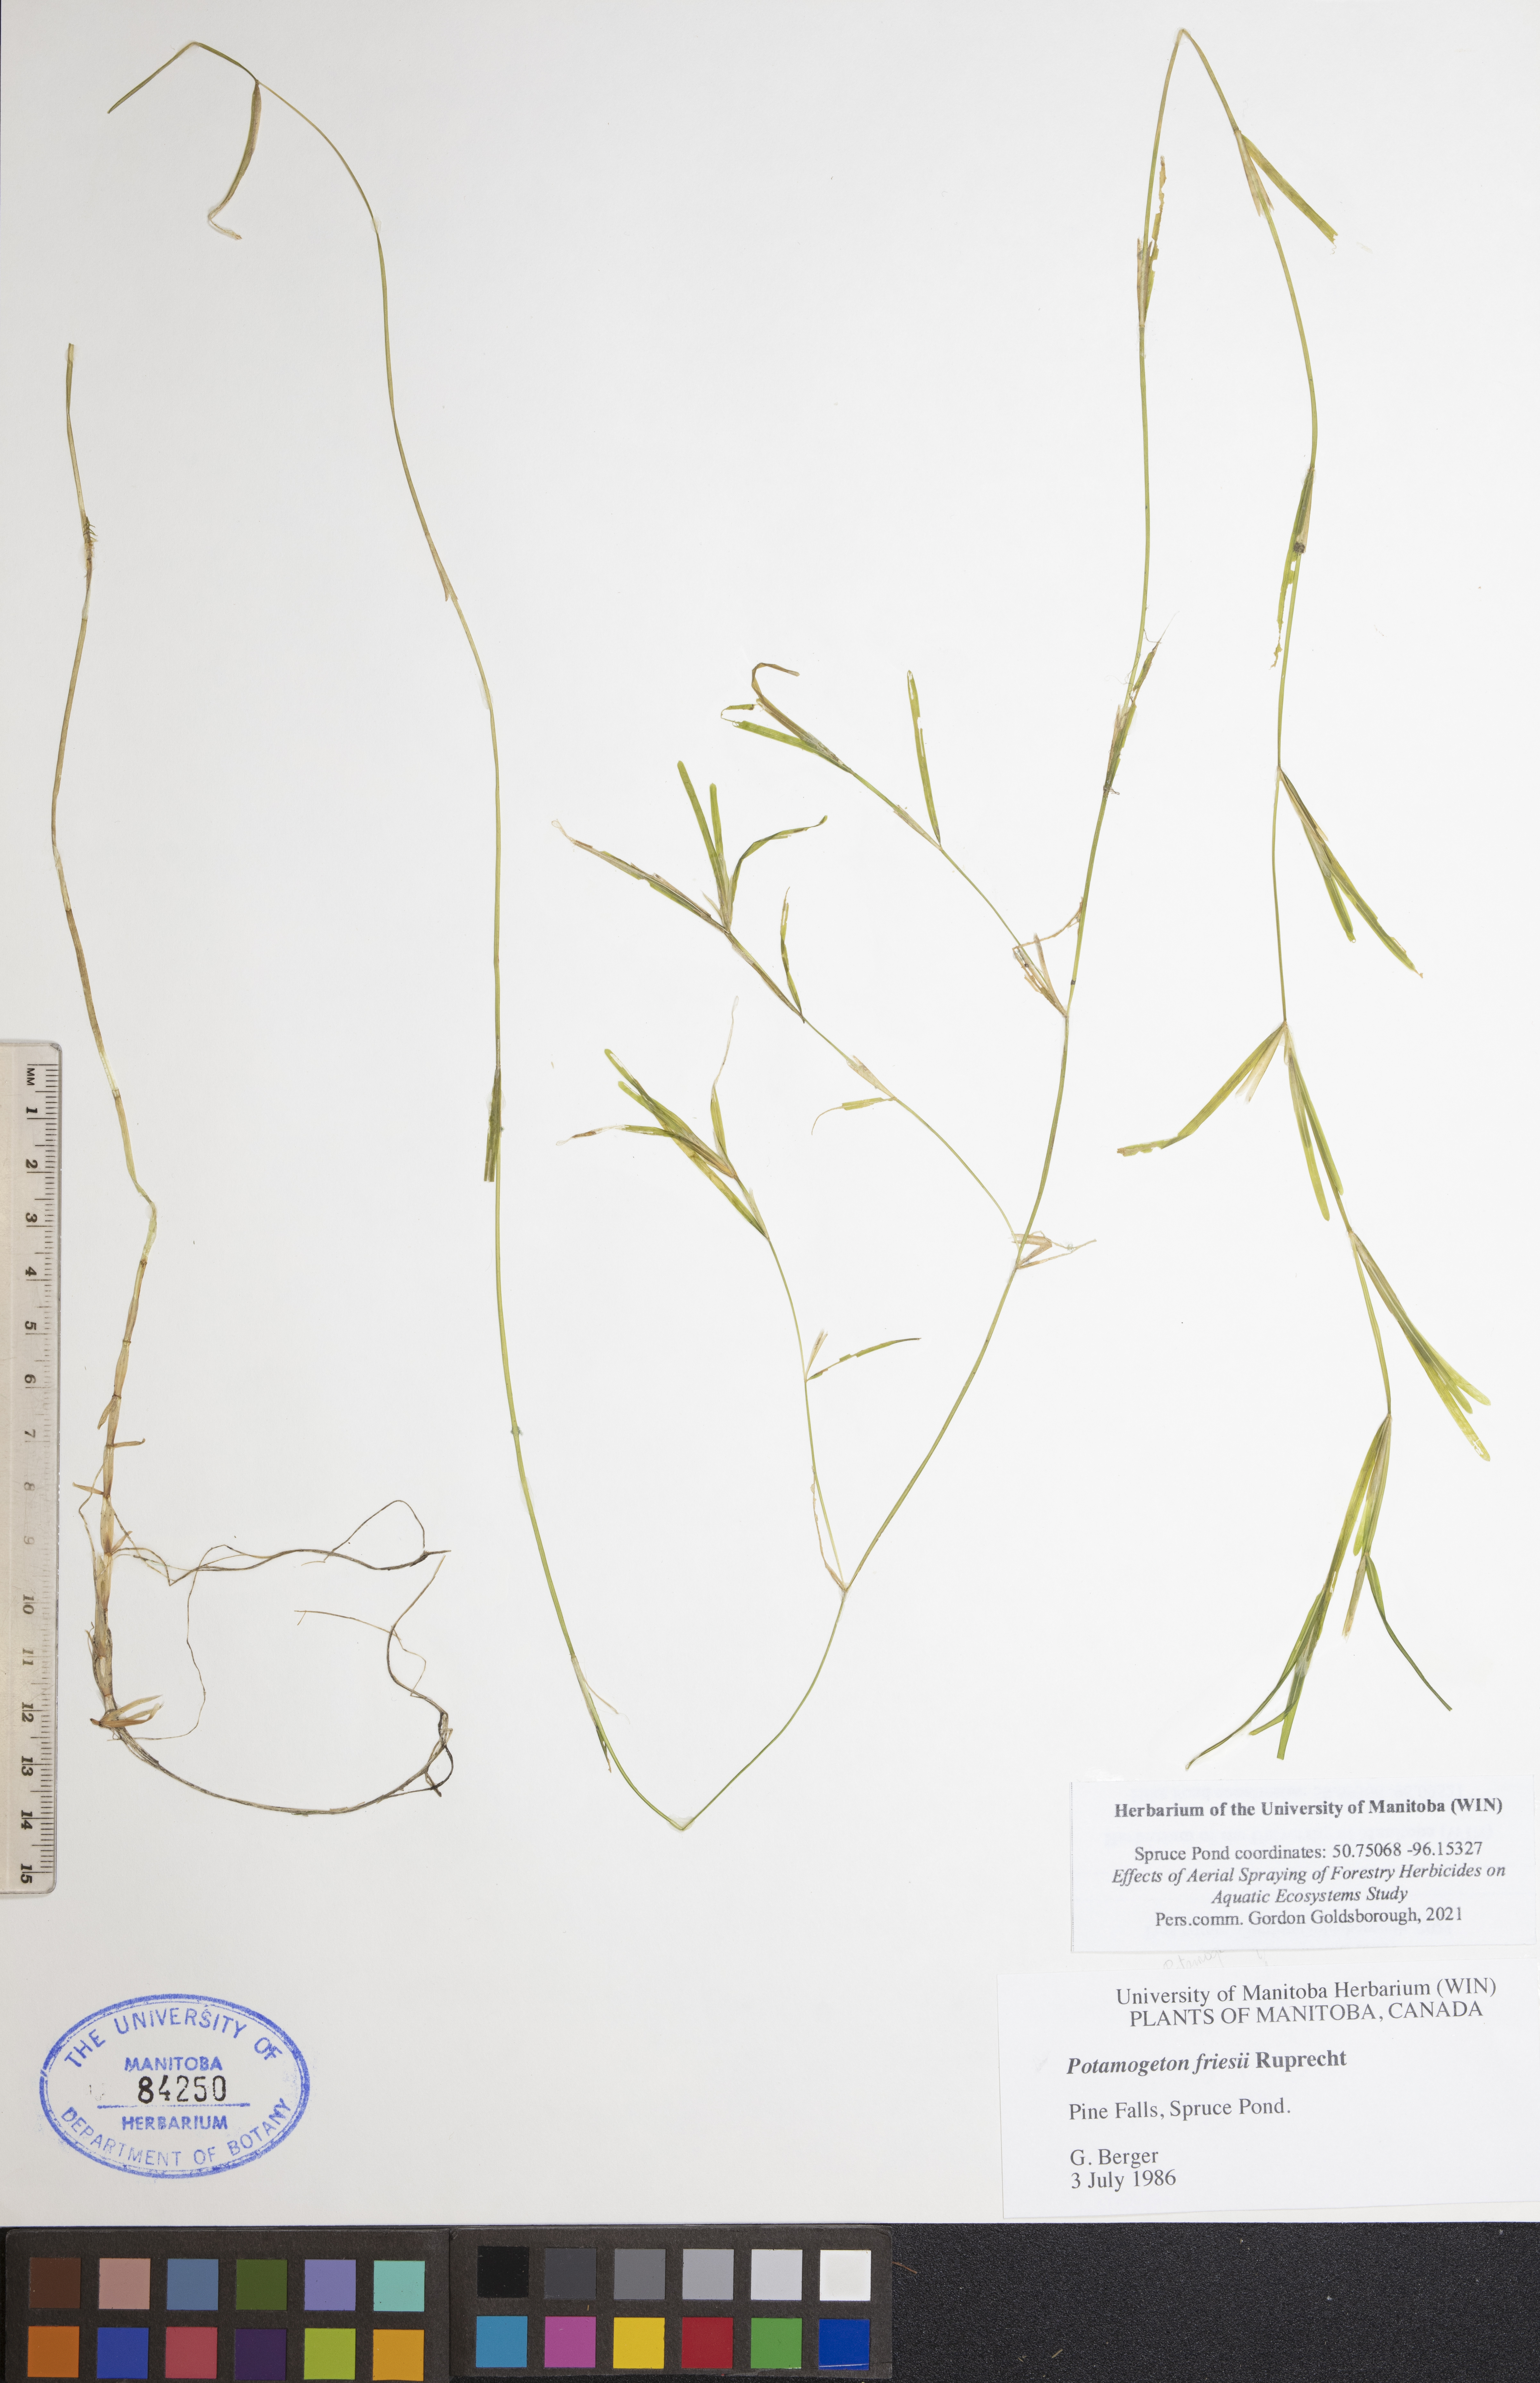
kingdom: Plantae
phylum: Tracheophyta
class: Liliopsida
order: Alismatales
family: Potamogetonaceae
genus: Potamogeton
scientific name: Potamogeton friesii
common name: Flat-stalked pondweed
